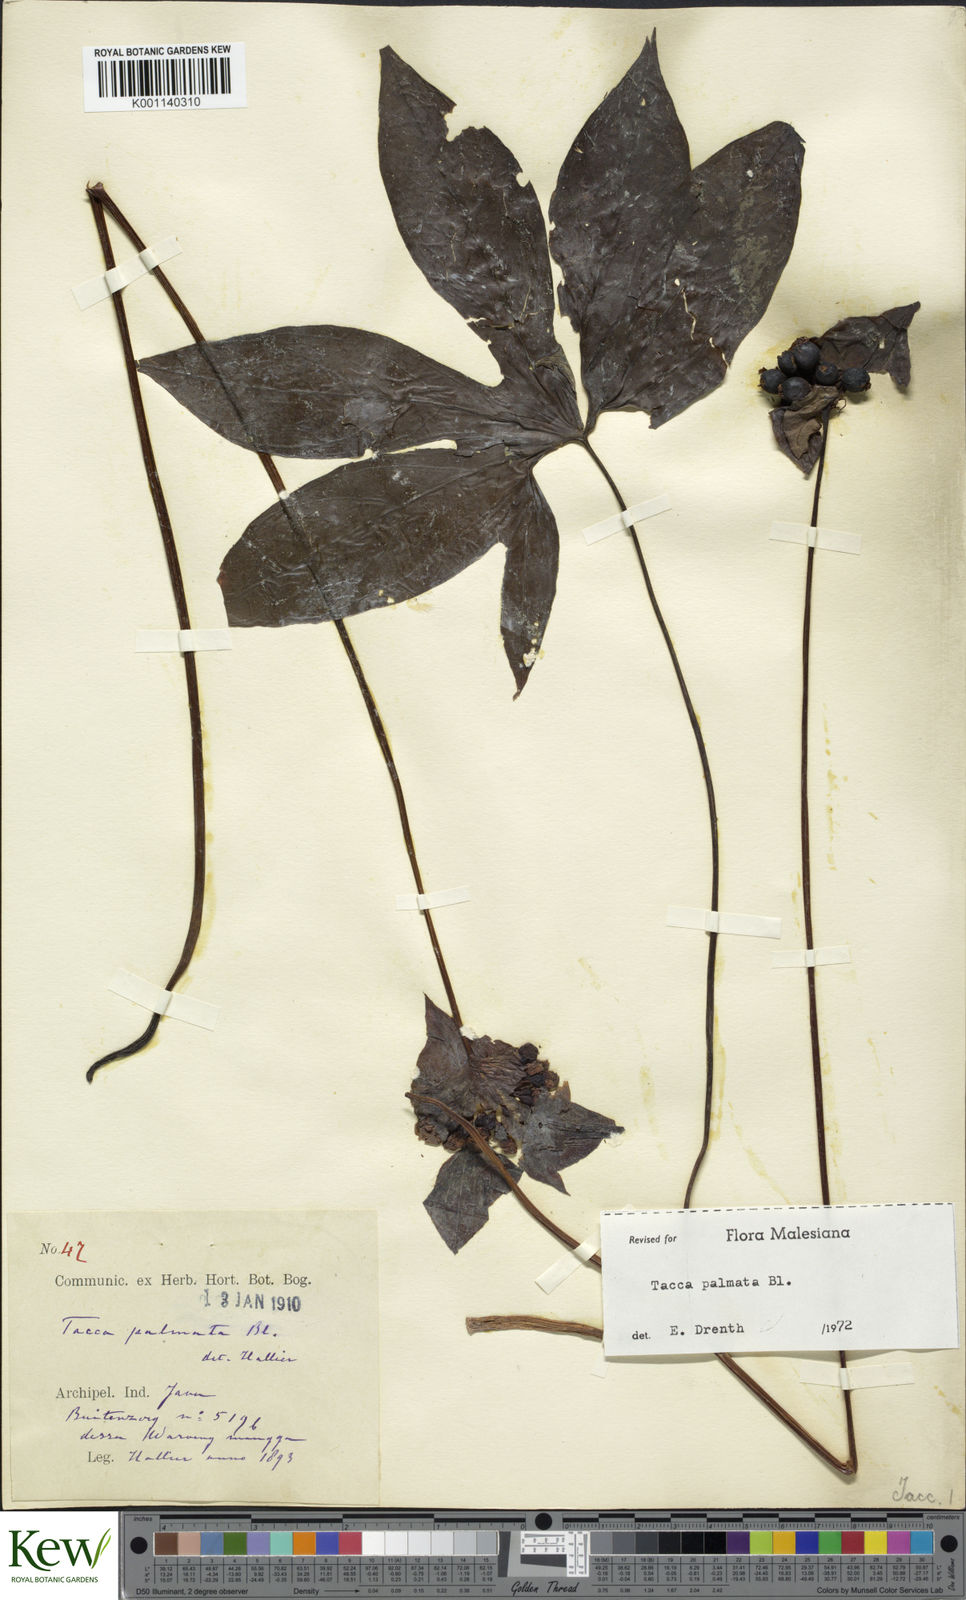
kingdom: Plantae
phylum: Tracheophyta
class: Liliopsida
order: Dioscoreales
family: Dioscoreaceae
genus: Tacca
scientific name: Tacca palmata
